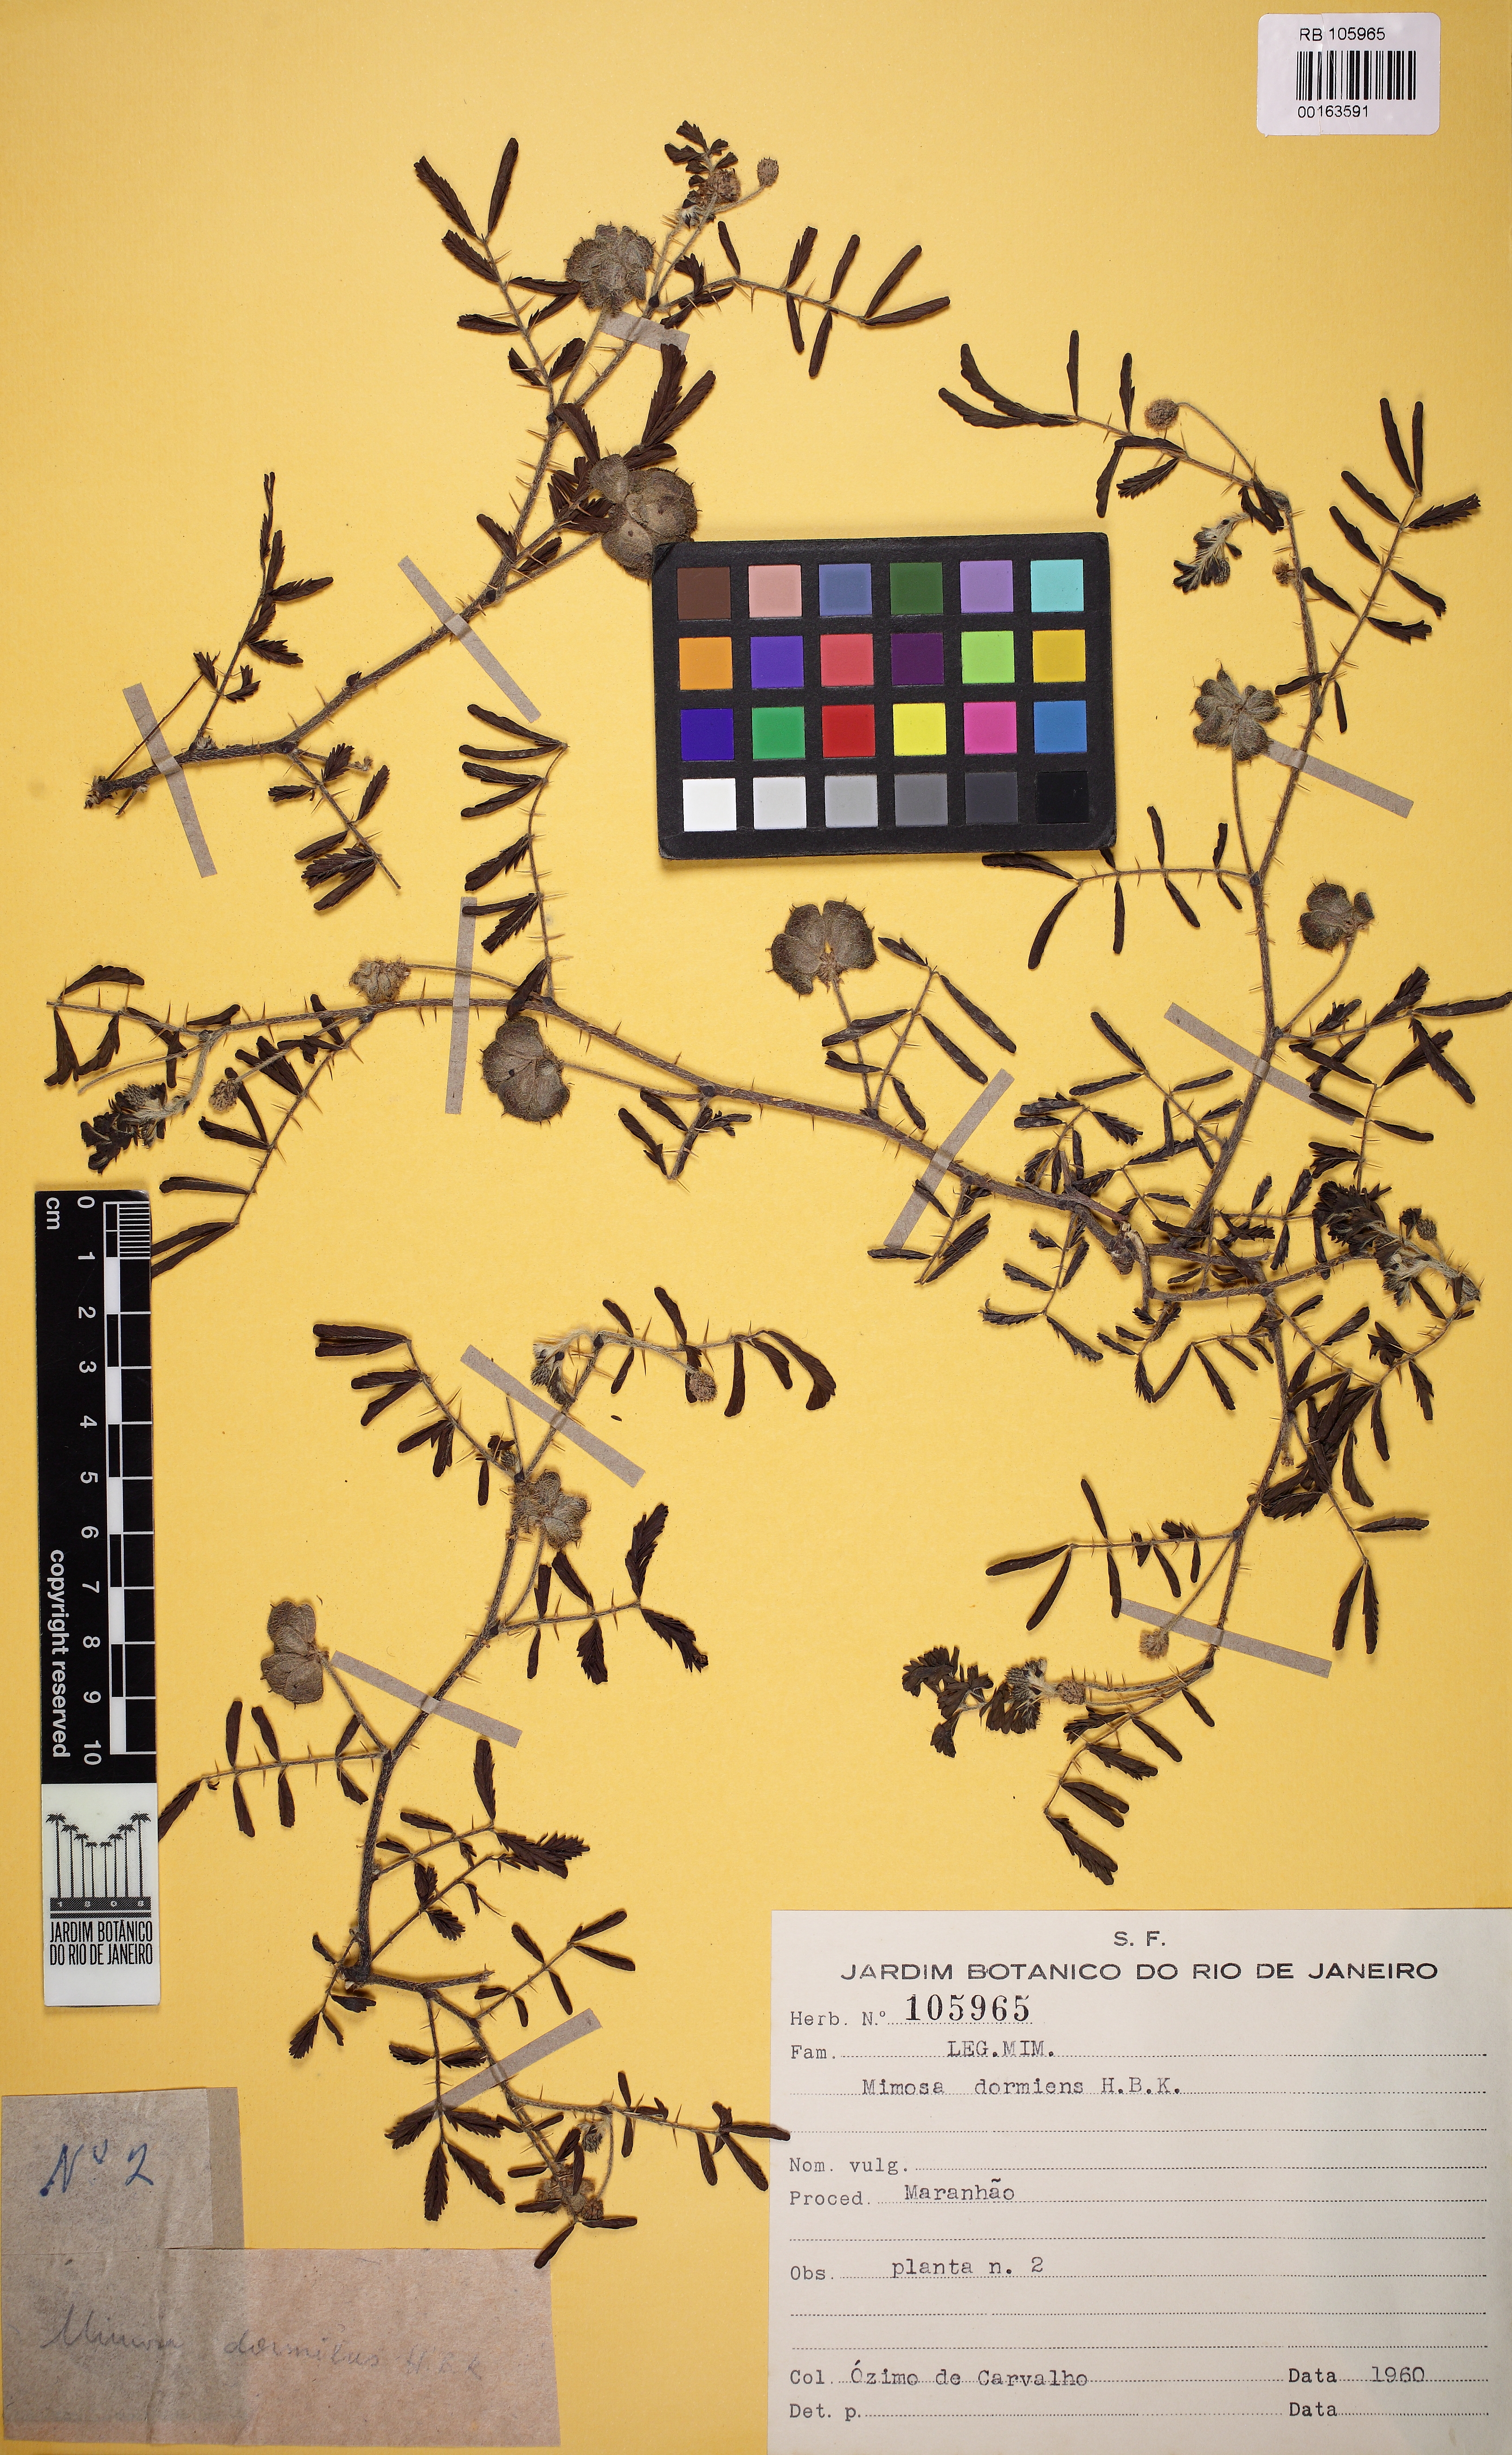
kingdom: Plantae
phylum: Tracheophyta
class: Magnoliopsida
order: Fabales
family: Fabaceae
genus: Mimosa
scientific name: Mimosa dormiens
